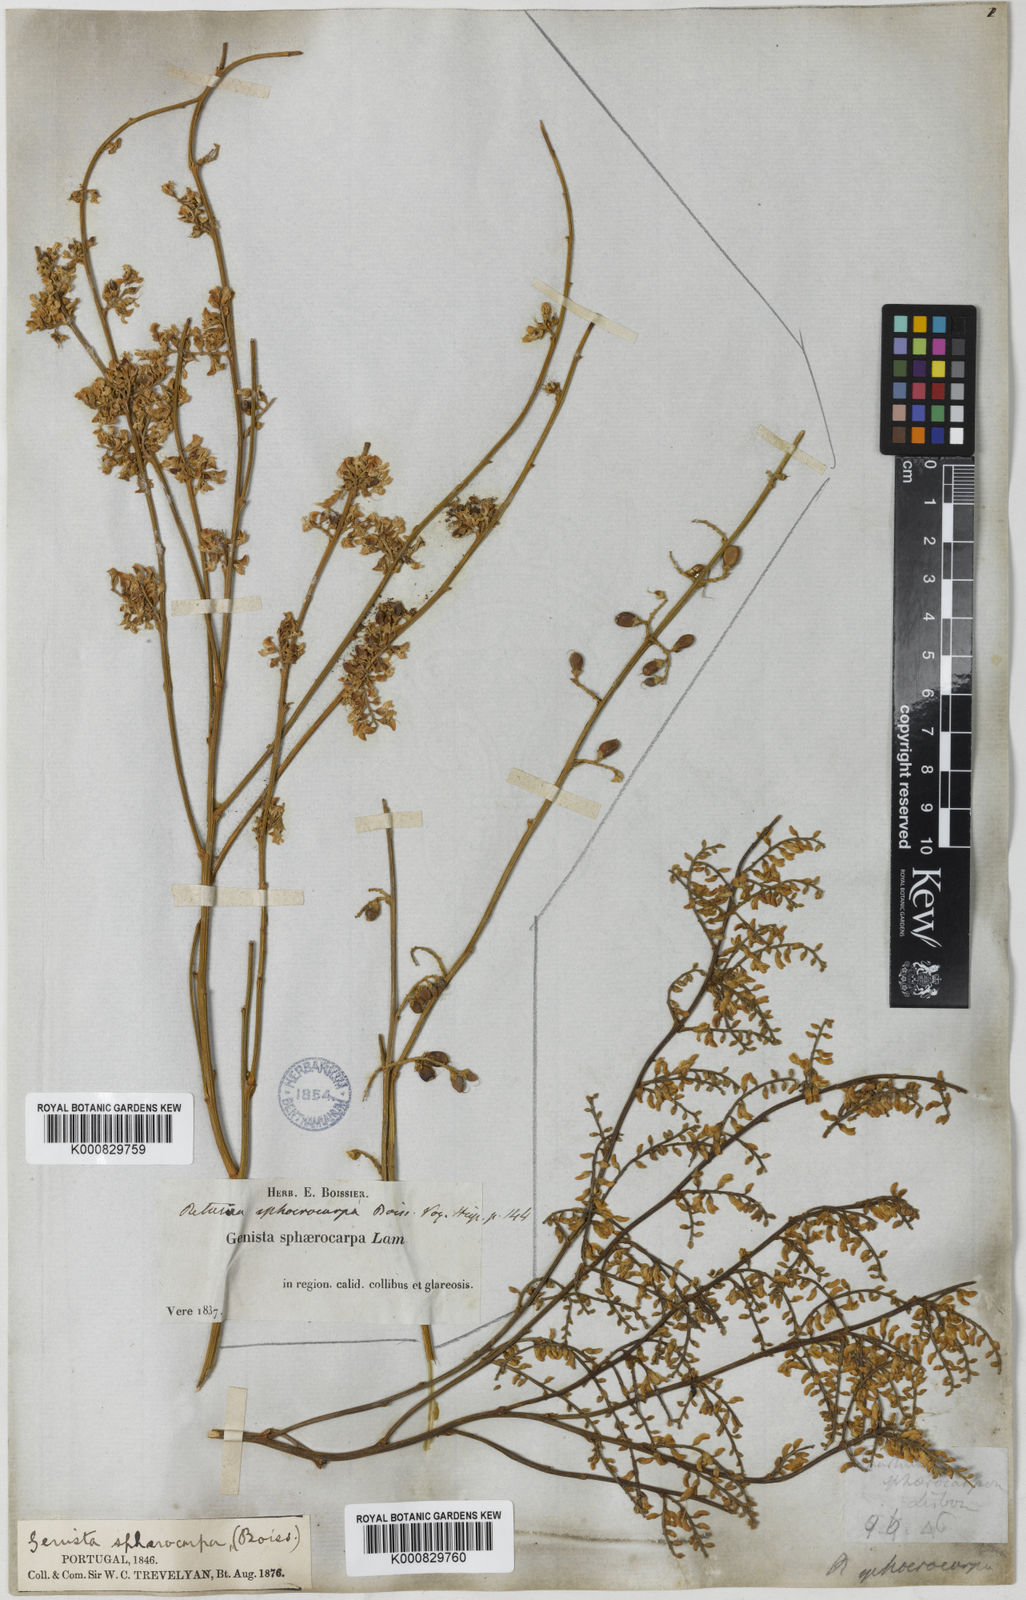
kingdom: Plantae
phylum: Tracheophyta
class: Magnoliopsida
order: Fabales
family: Fabaceae
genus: Retama
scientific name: Retama sphaerocarpa
